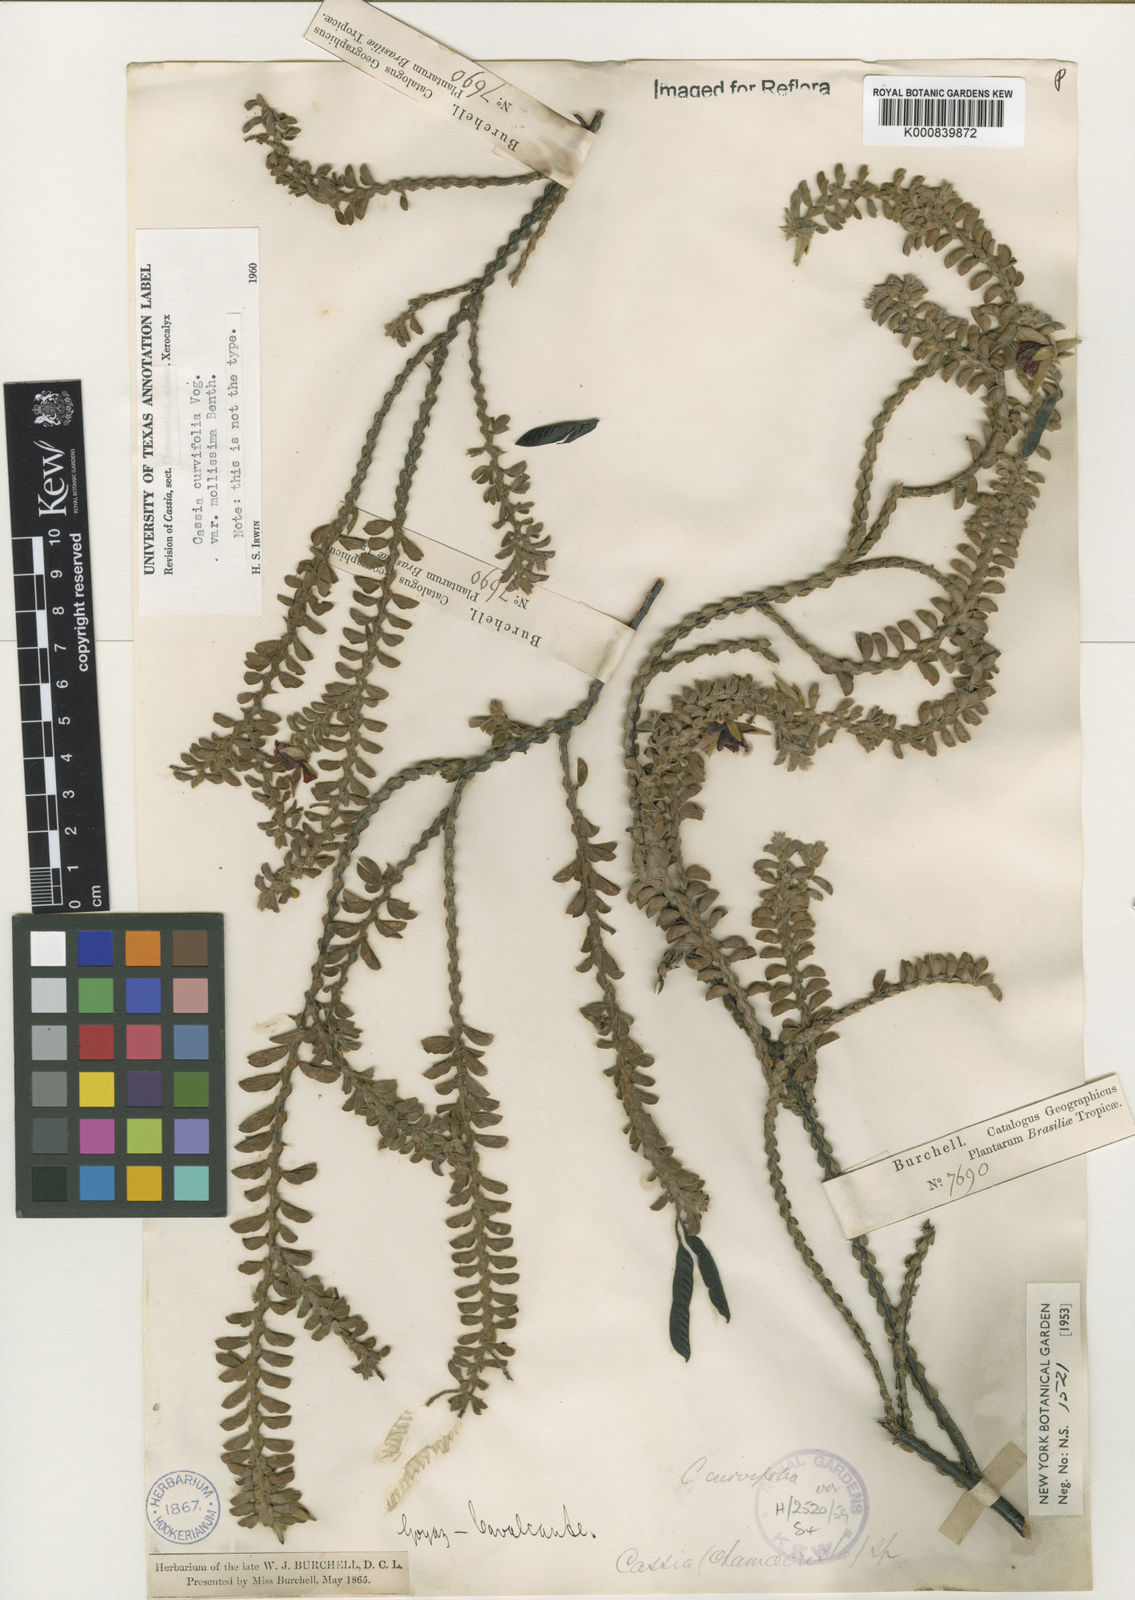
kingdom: Plantae
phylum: Tracheophyta
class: Magnoliopsida
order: Fabales
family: Fabaceae
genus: Chamaecrista
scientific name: Chamaecrista ramosa
